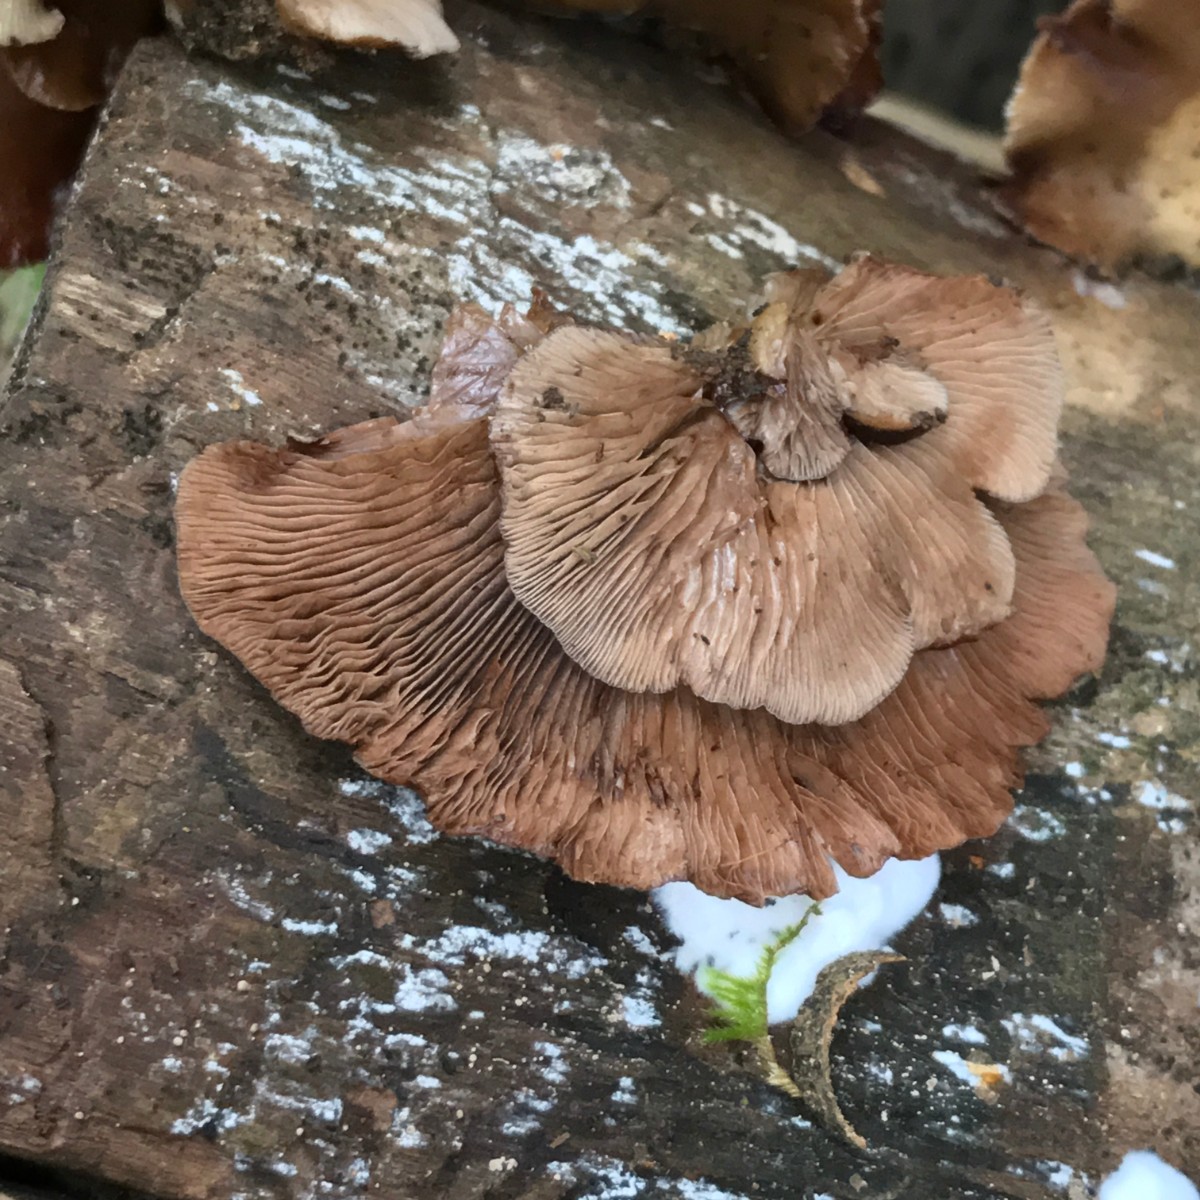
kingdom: Fungi
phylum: Basidiomycota
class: Agaricomycetes
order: Agaricales
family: Crepidotaceae
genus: Crepidotus
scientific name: Crepidotus mollis
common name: blød muslingesvamp
